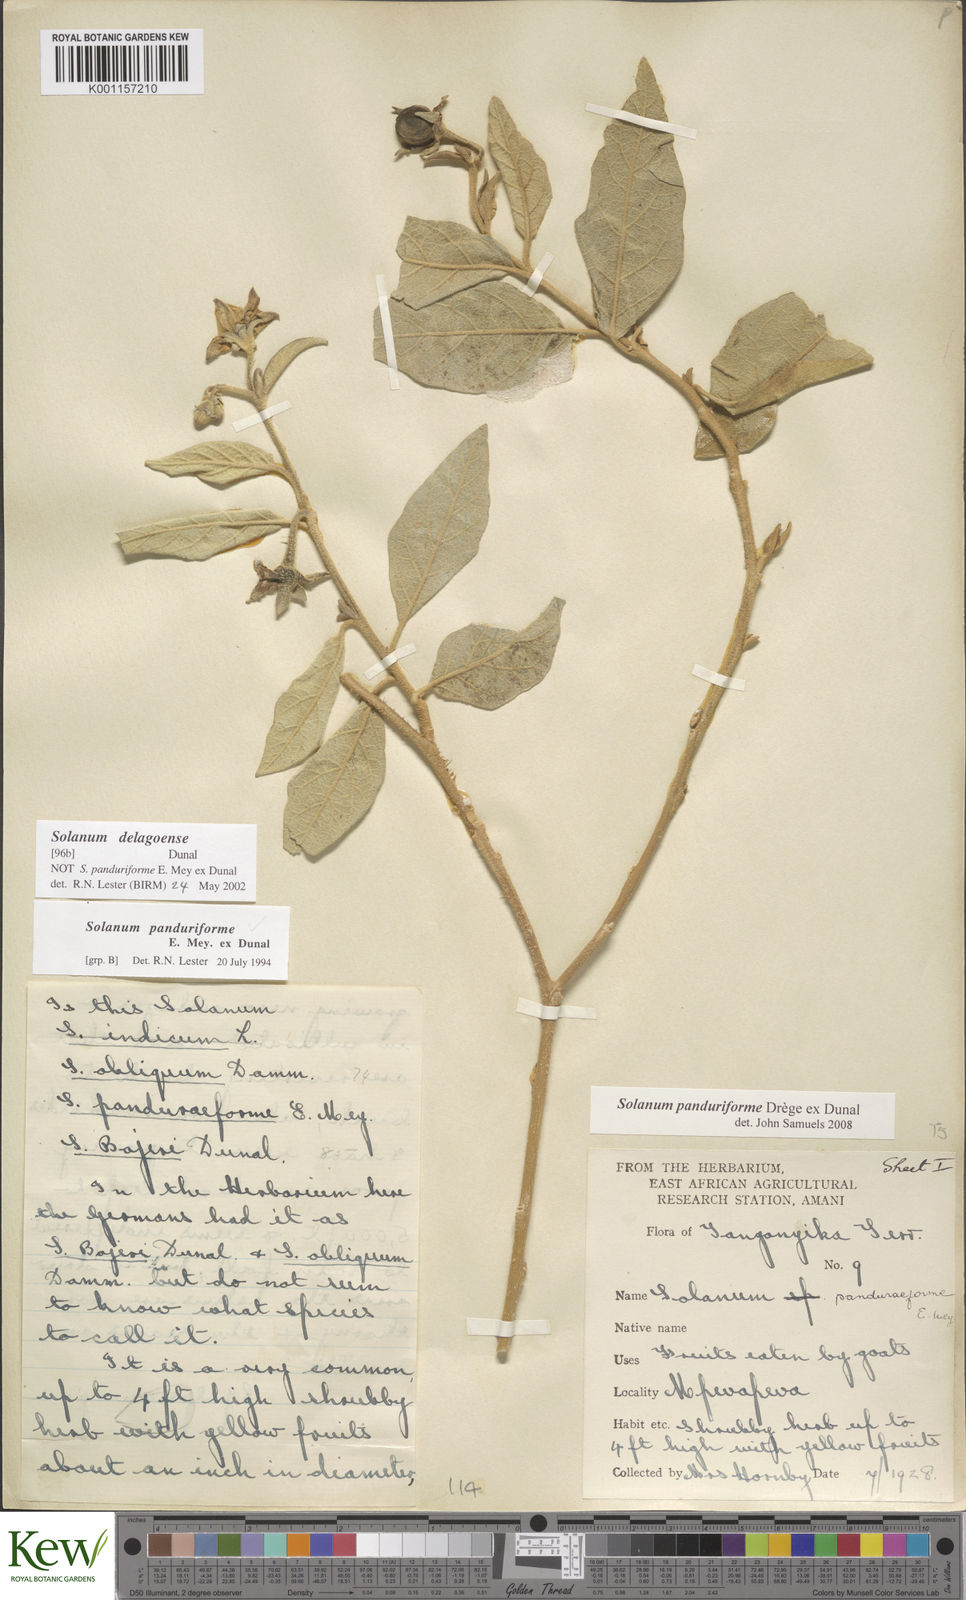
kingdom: Plantae
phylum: Tracheophyta
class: Magnoliopsida
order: Solanales
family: Solanaceae
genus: Solanum
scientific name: Solanum campylacanthum
